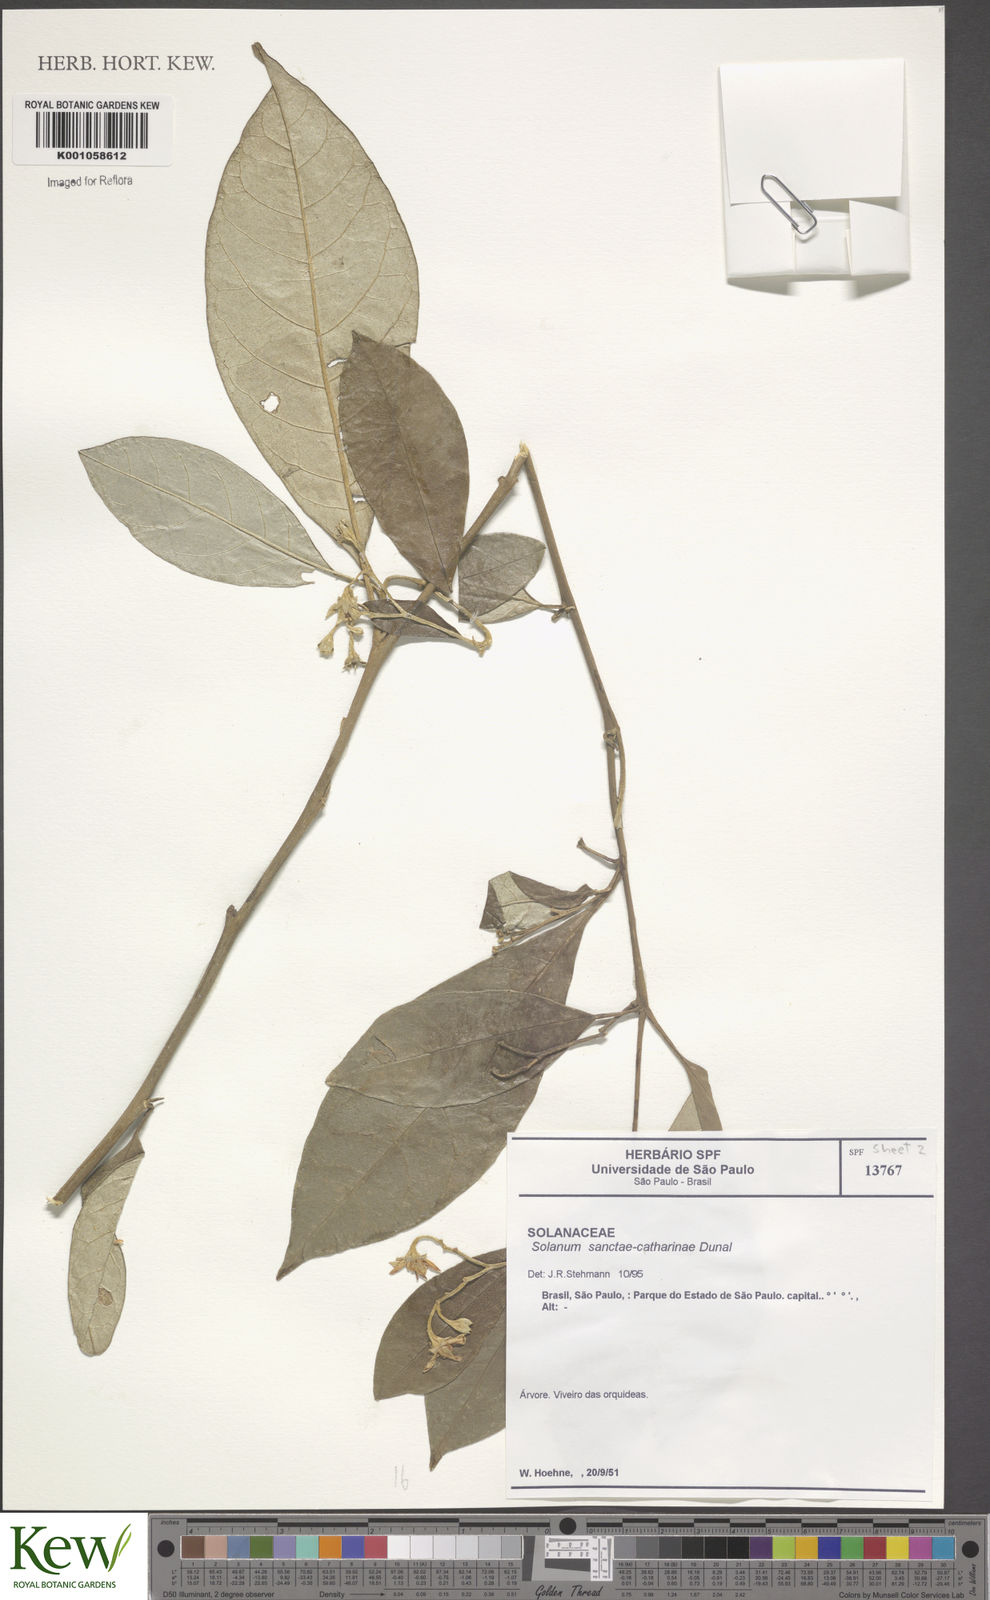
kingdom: Plantae
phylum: Tracheophyta
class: Magnoliopsida
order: Solanales
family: Solanaceae
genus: Solanum
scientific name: Solanum sanctae-catharinae
